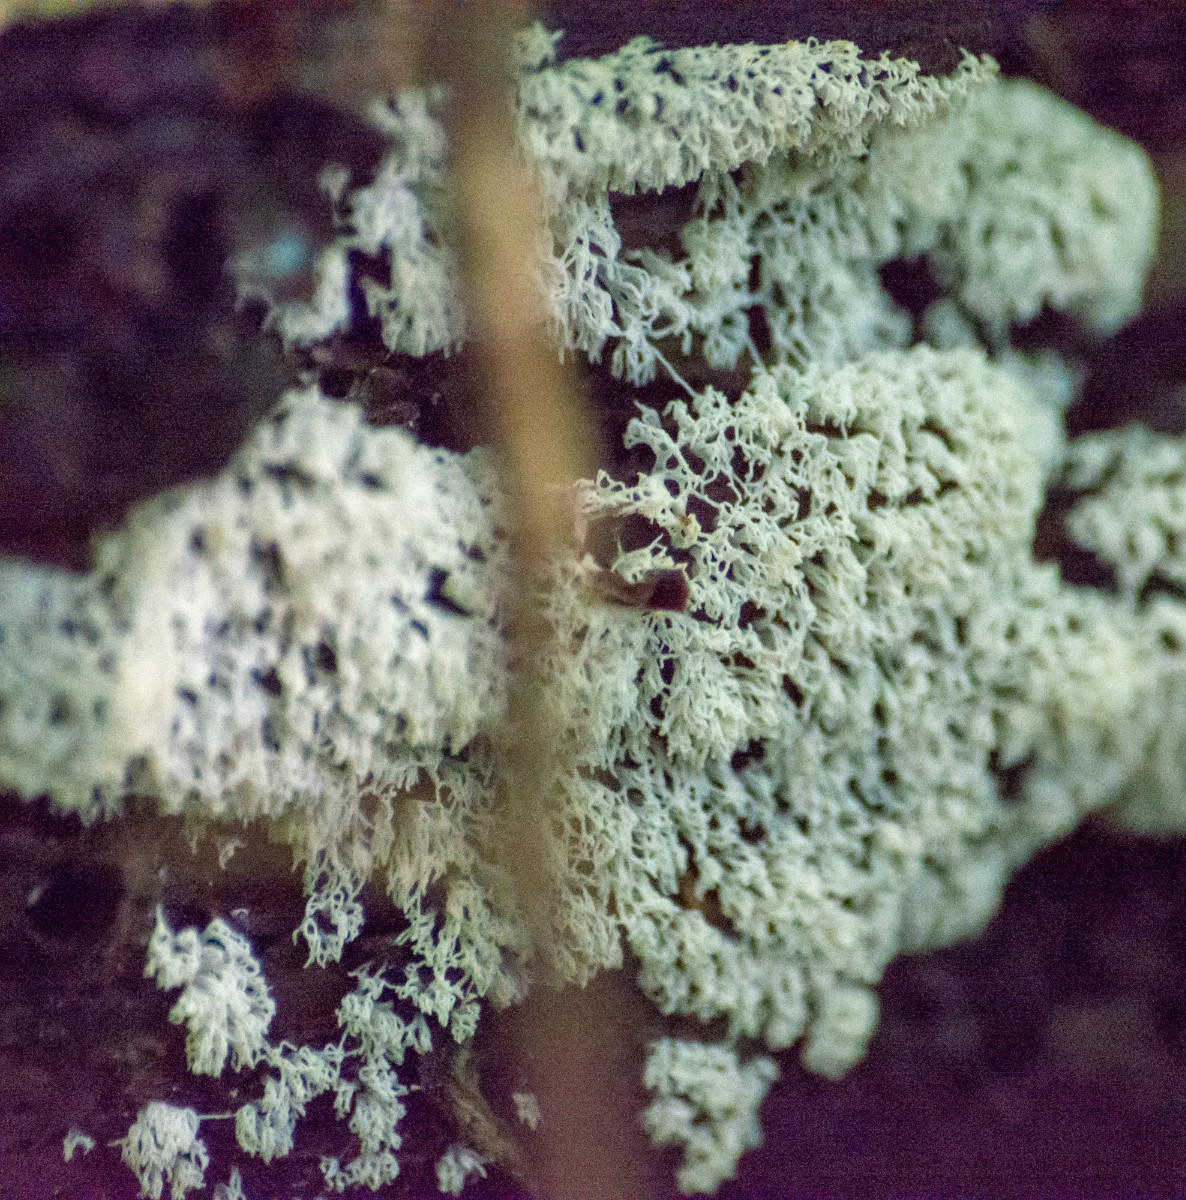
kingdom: Fungi
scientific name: Fungi
